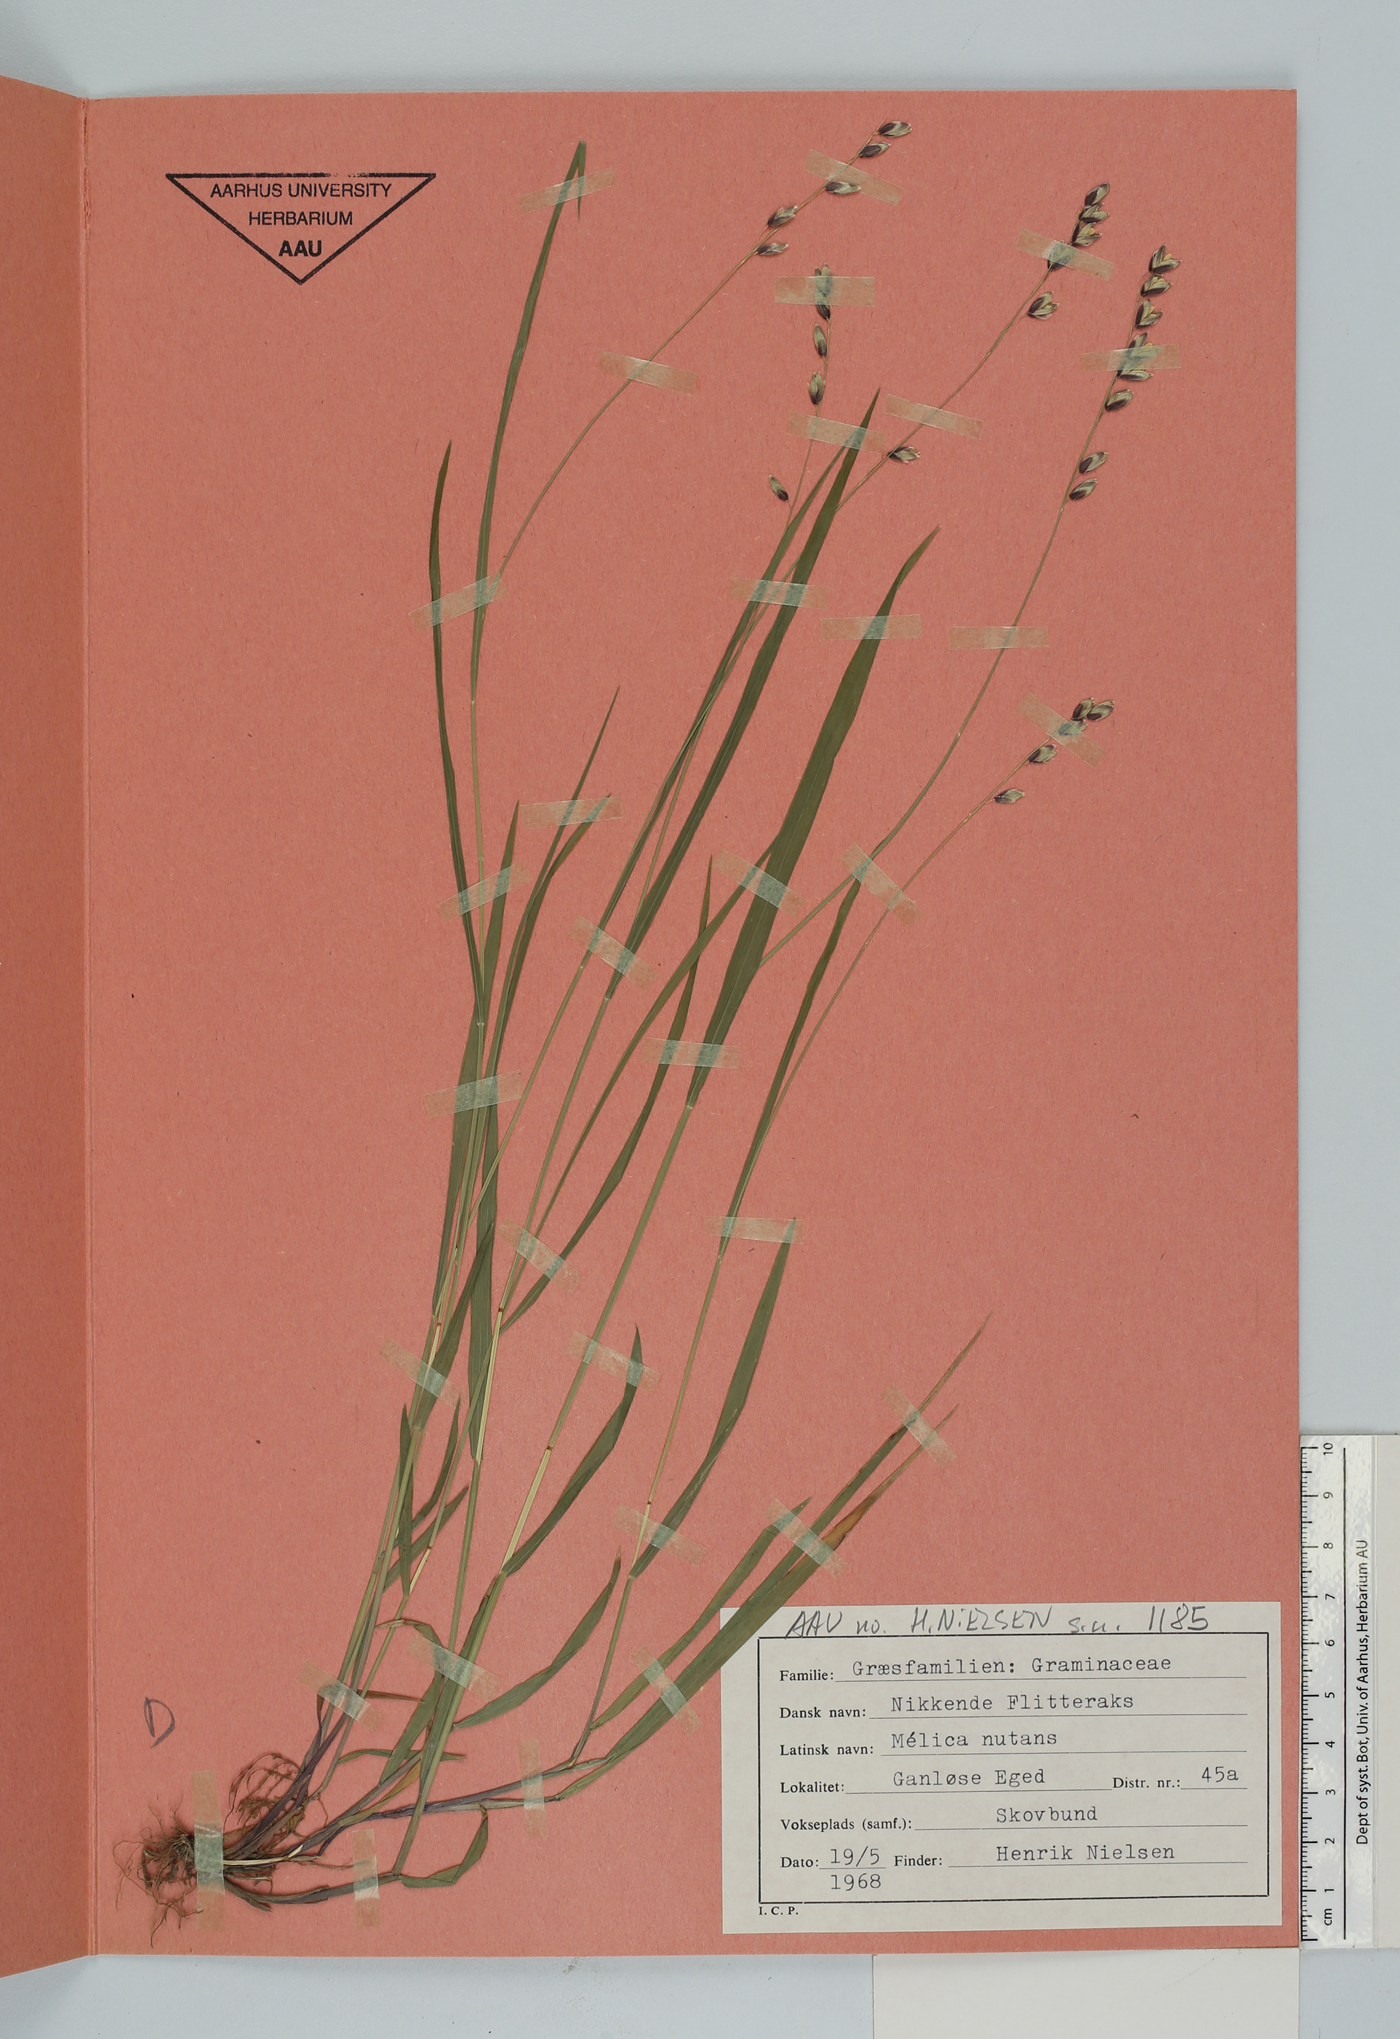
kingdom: Plantae
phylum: Tracheophyta
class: Liliopsida
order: Poales
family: Poaceae
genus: Melica
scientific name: Melica nutans
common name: Mountain melick
